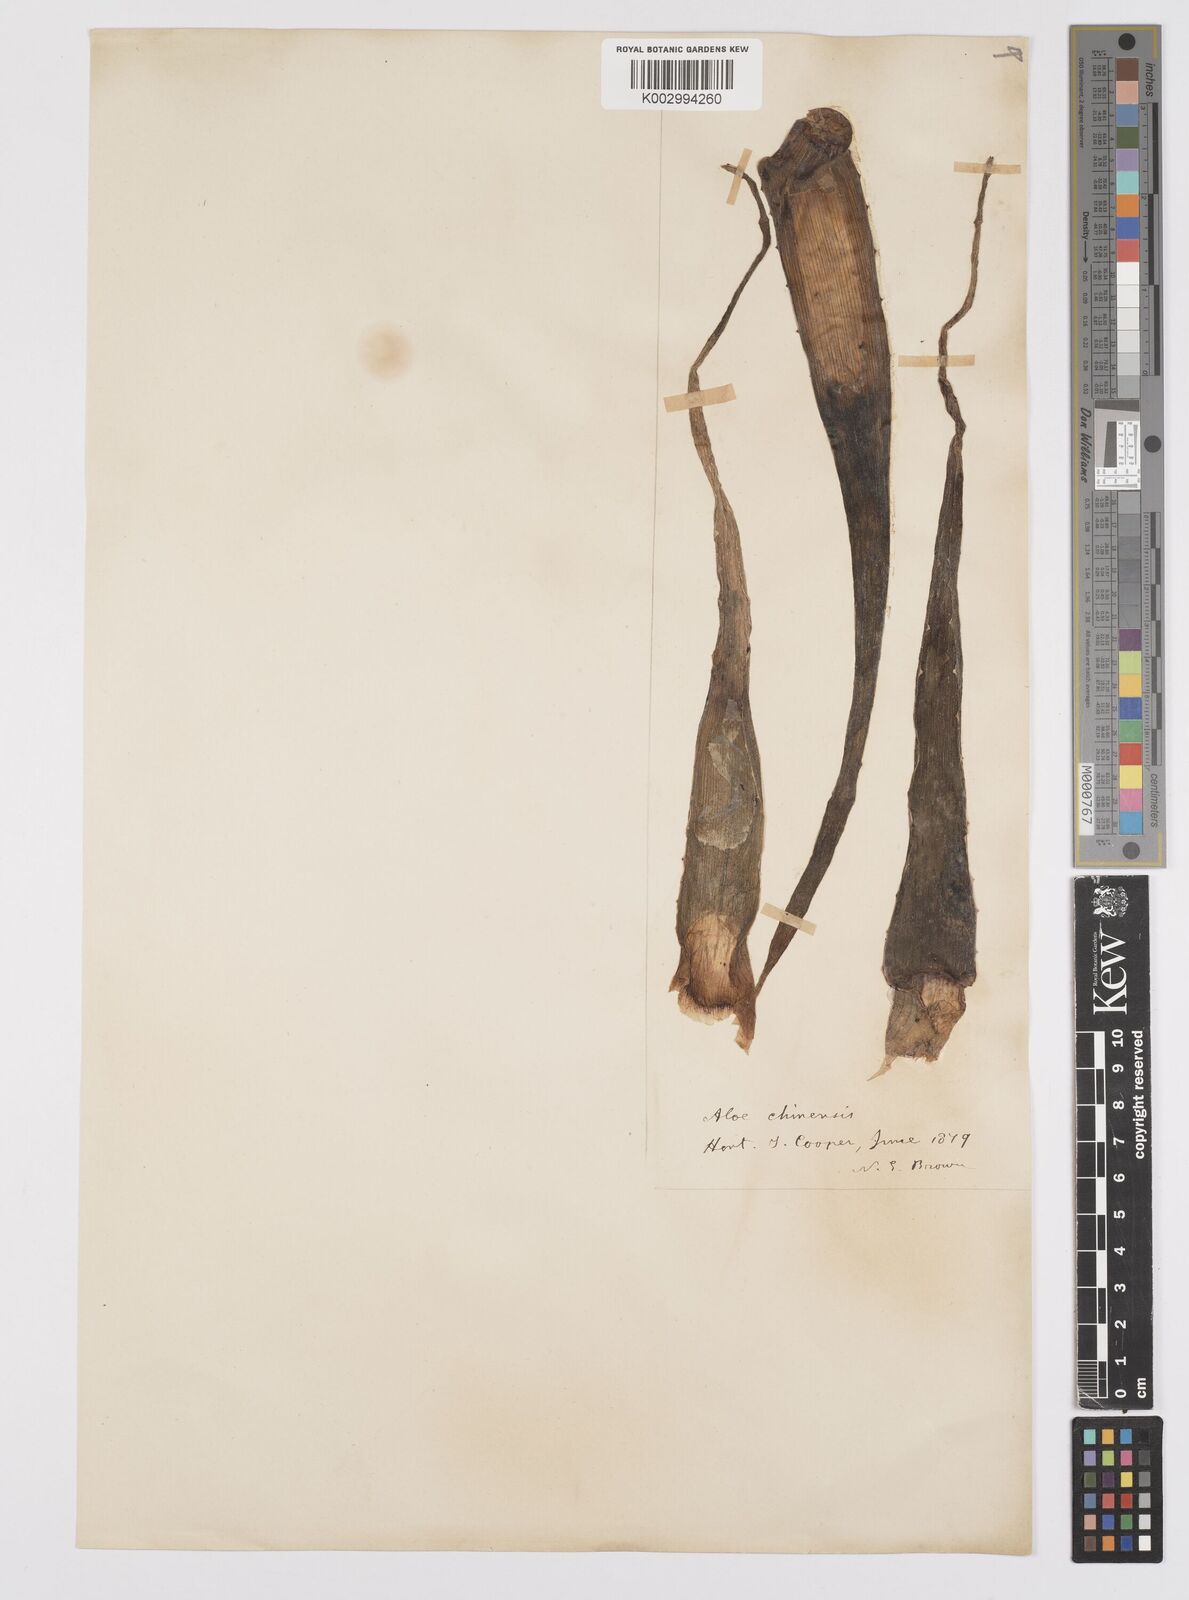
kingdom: Plantae
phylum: Tracheophyta
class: Liliopsida
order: Asparagales
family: Asphodelaceae
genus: Aloe
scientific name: Aloe vera
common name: Barbados aloe
